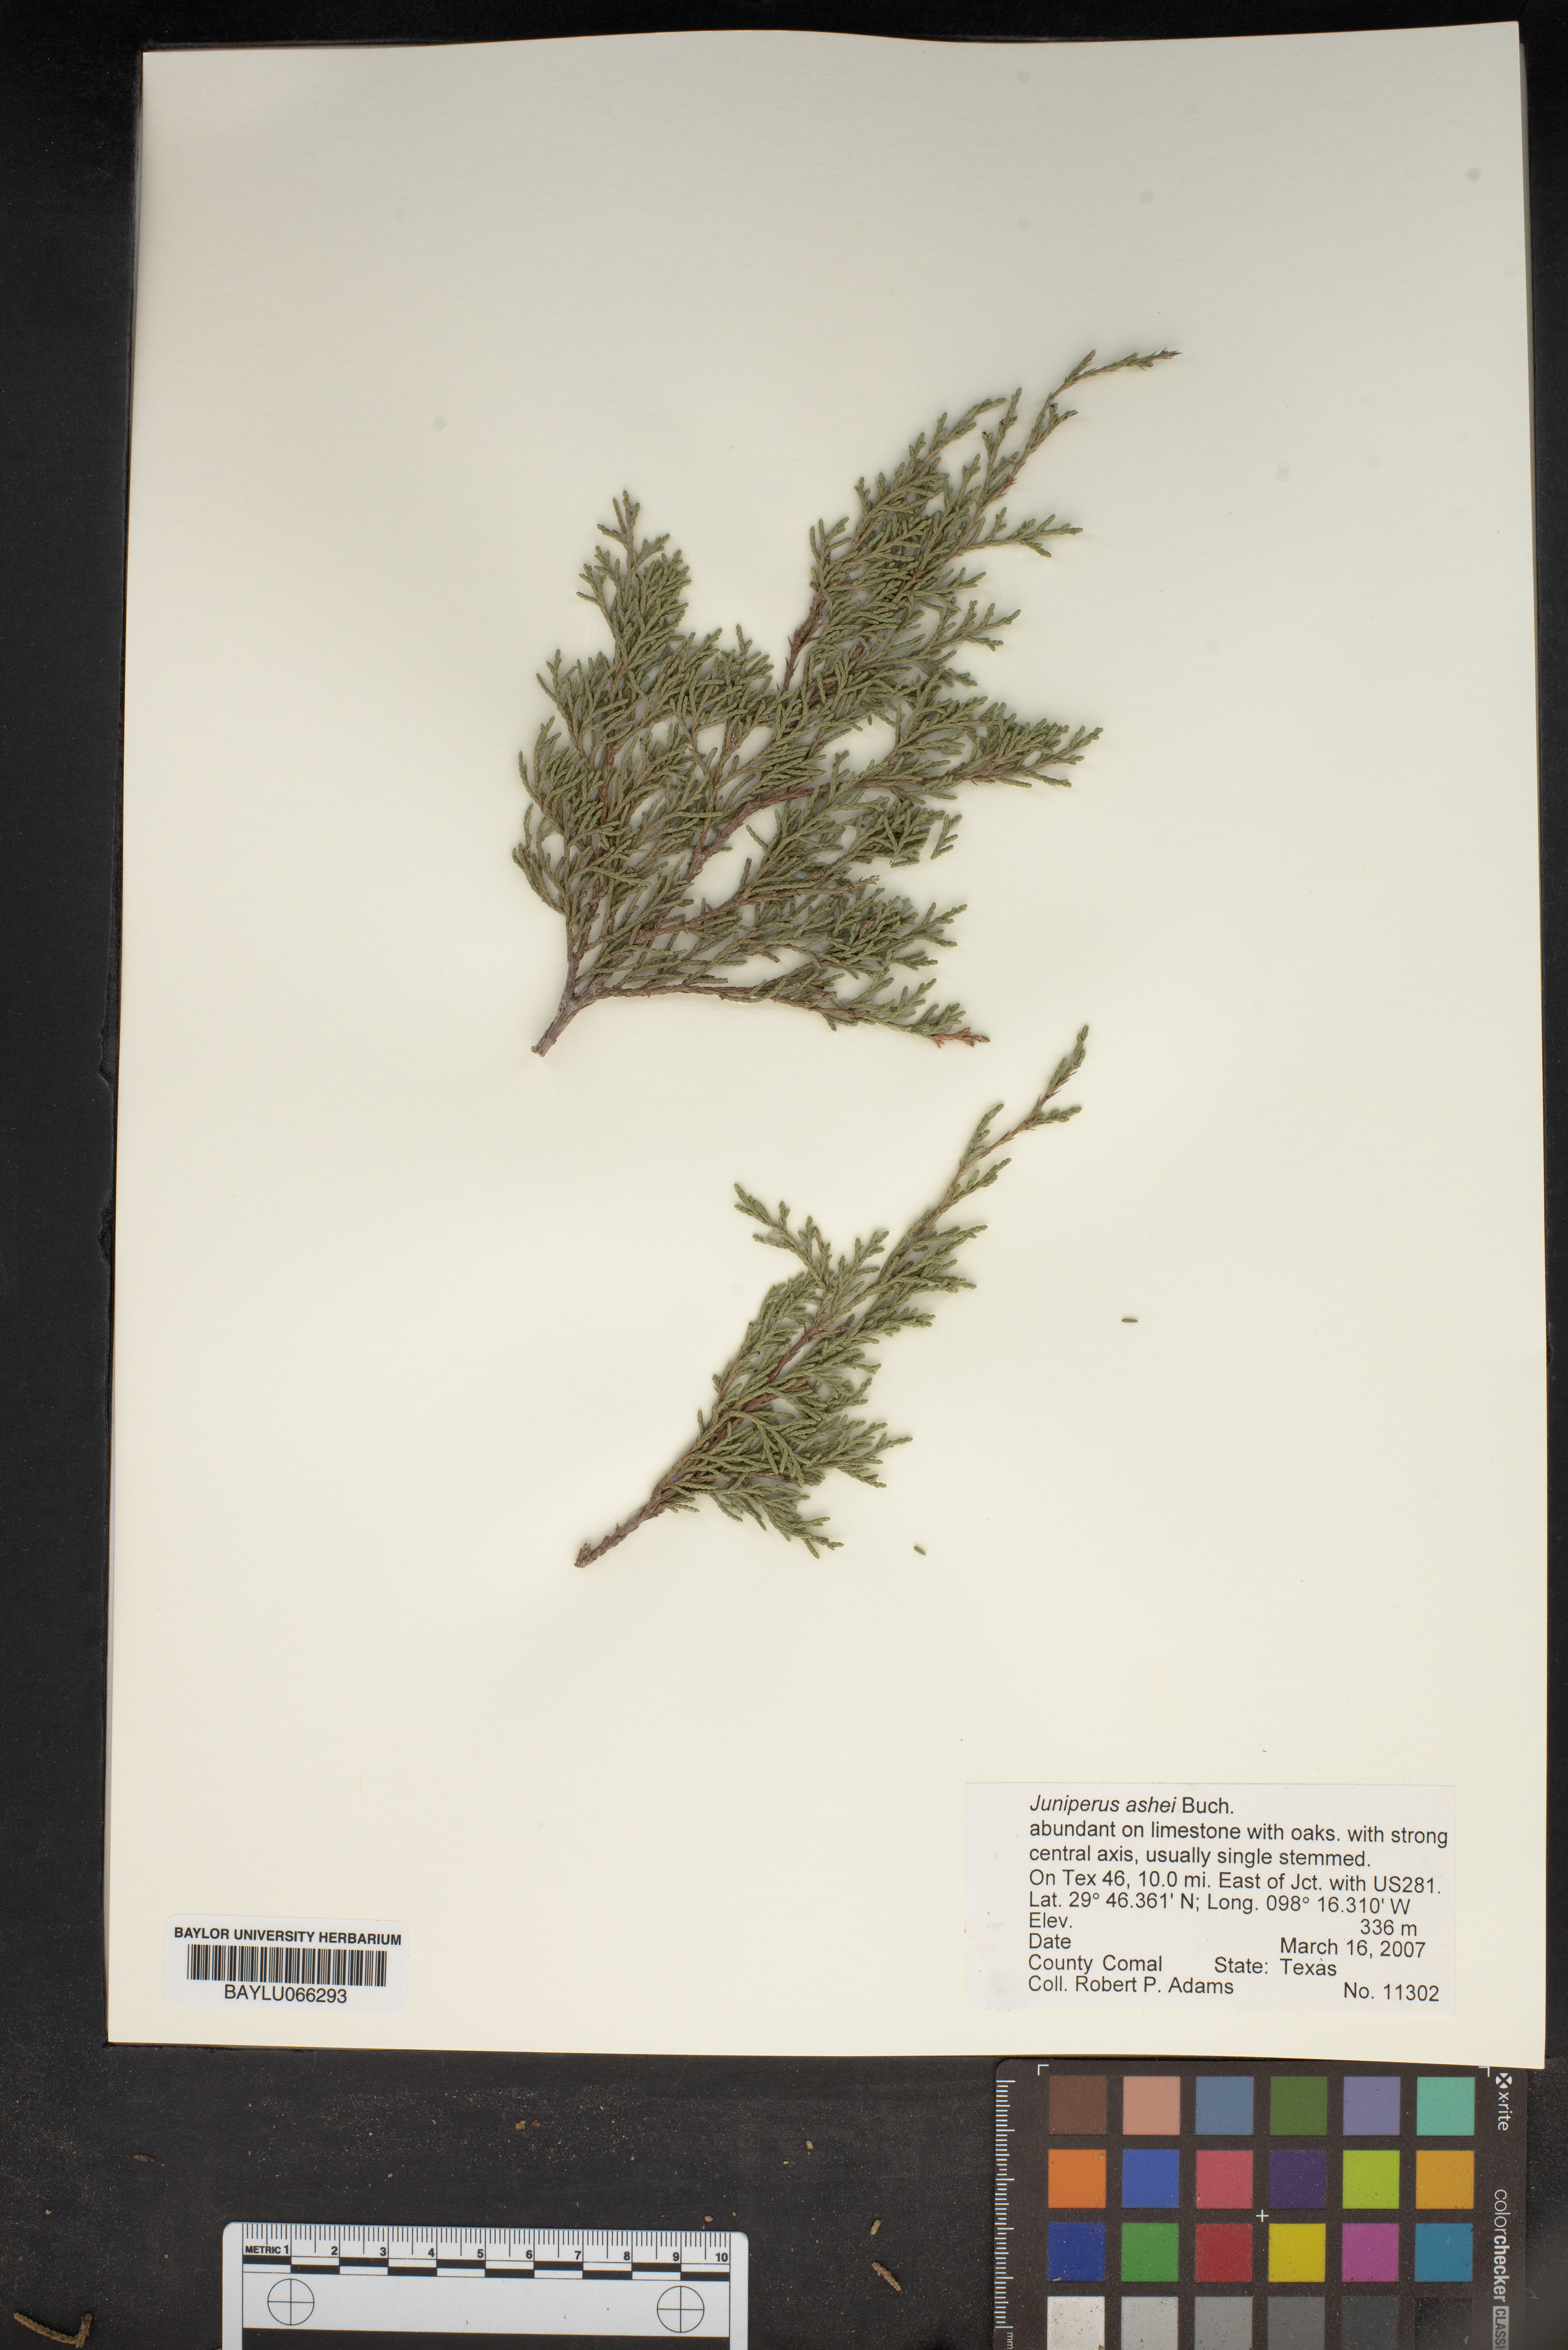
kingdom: Plantae
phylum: Tracheophyta
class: Pinopsida
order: Pinales
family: Cupressaceae
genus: Juniperus
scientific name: Juniperus ashei
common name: Mexican juniper
